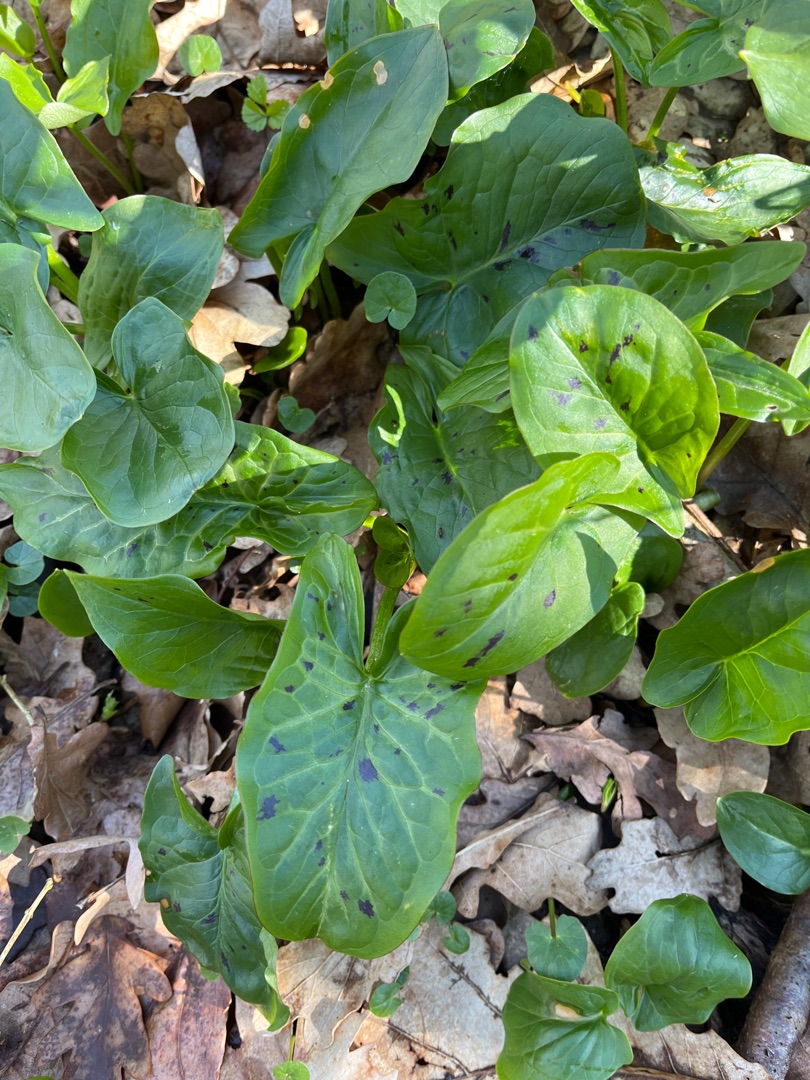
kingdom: Plantae
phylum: Tracheophyta
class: Liliopsida
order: Alismatales
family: Araceae
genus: Arum
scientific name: Arum maculatum
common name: Plettet arum
